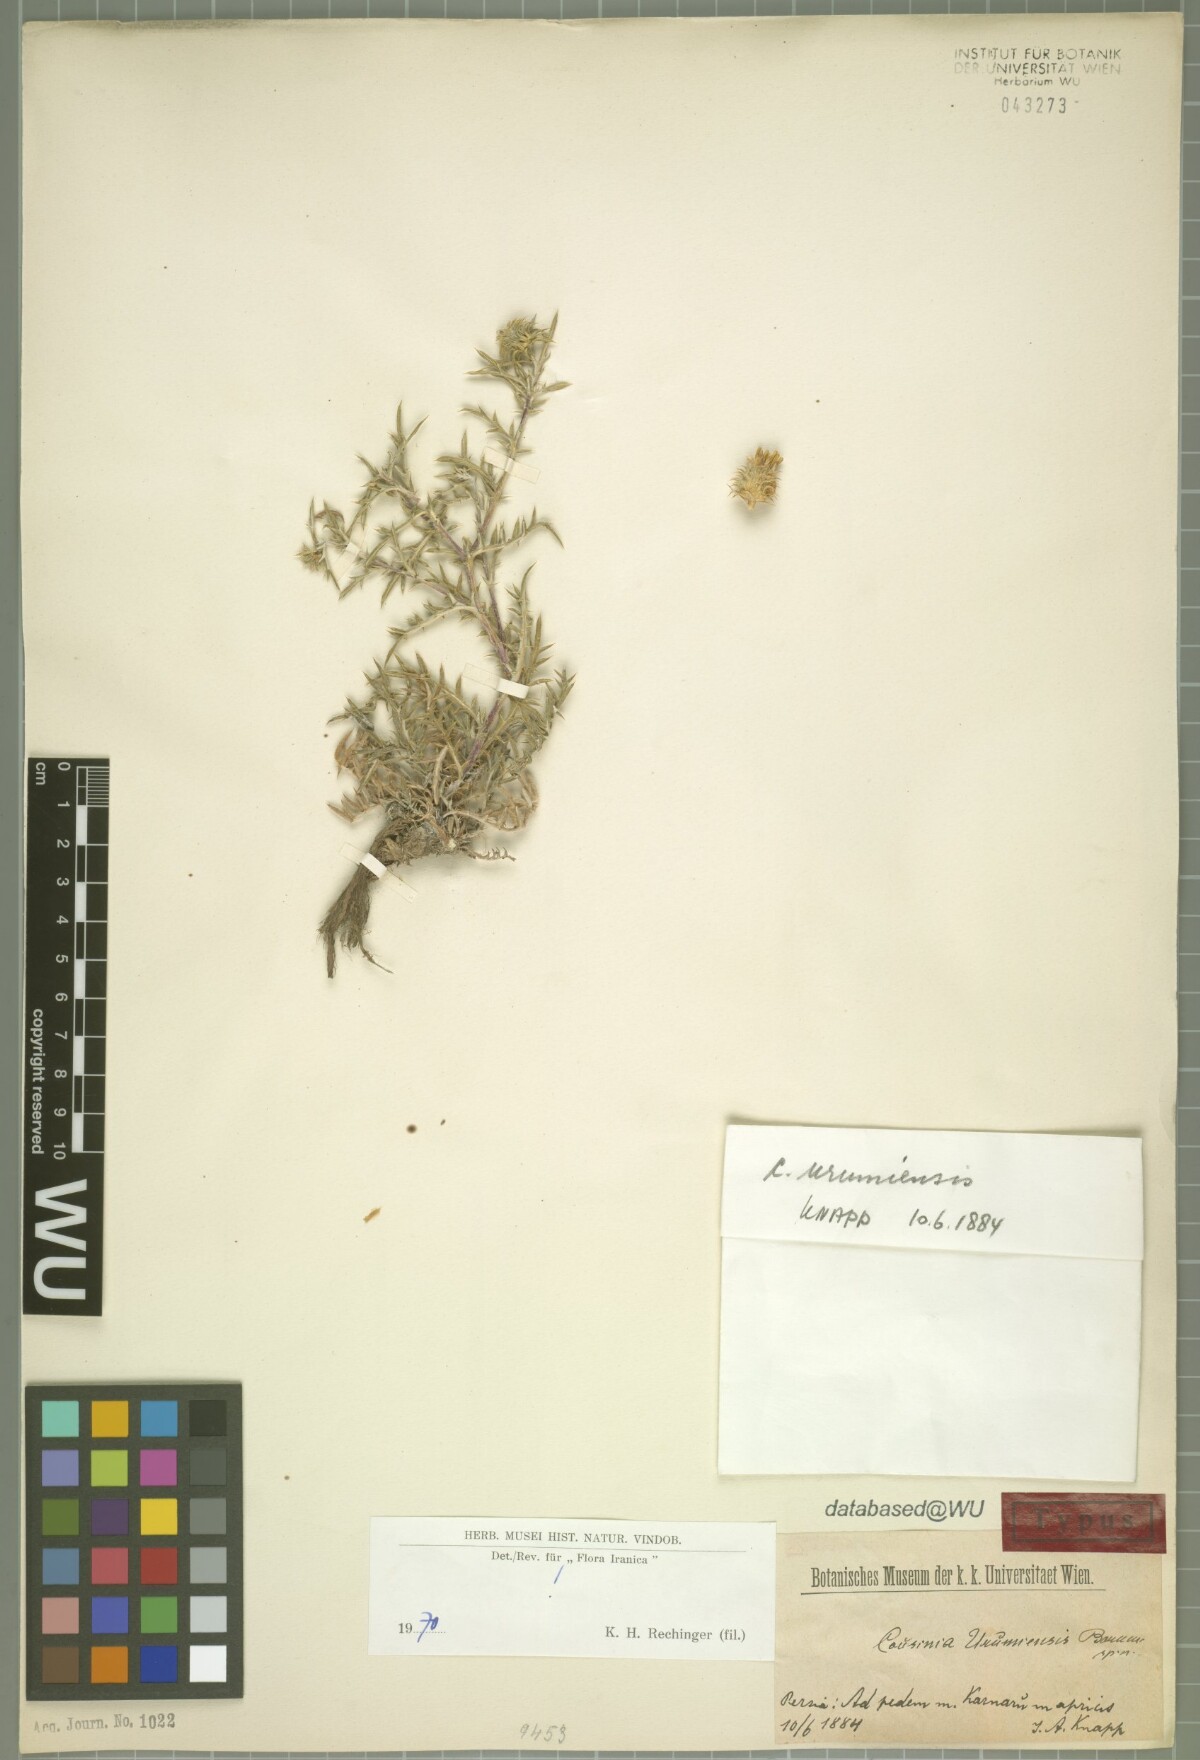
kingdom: Plantae
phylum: Tracheophyta
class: Magnoliopsida
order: Asterales
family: Asteraceae
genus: Cousinia
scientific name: Cousinia urumiensis
